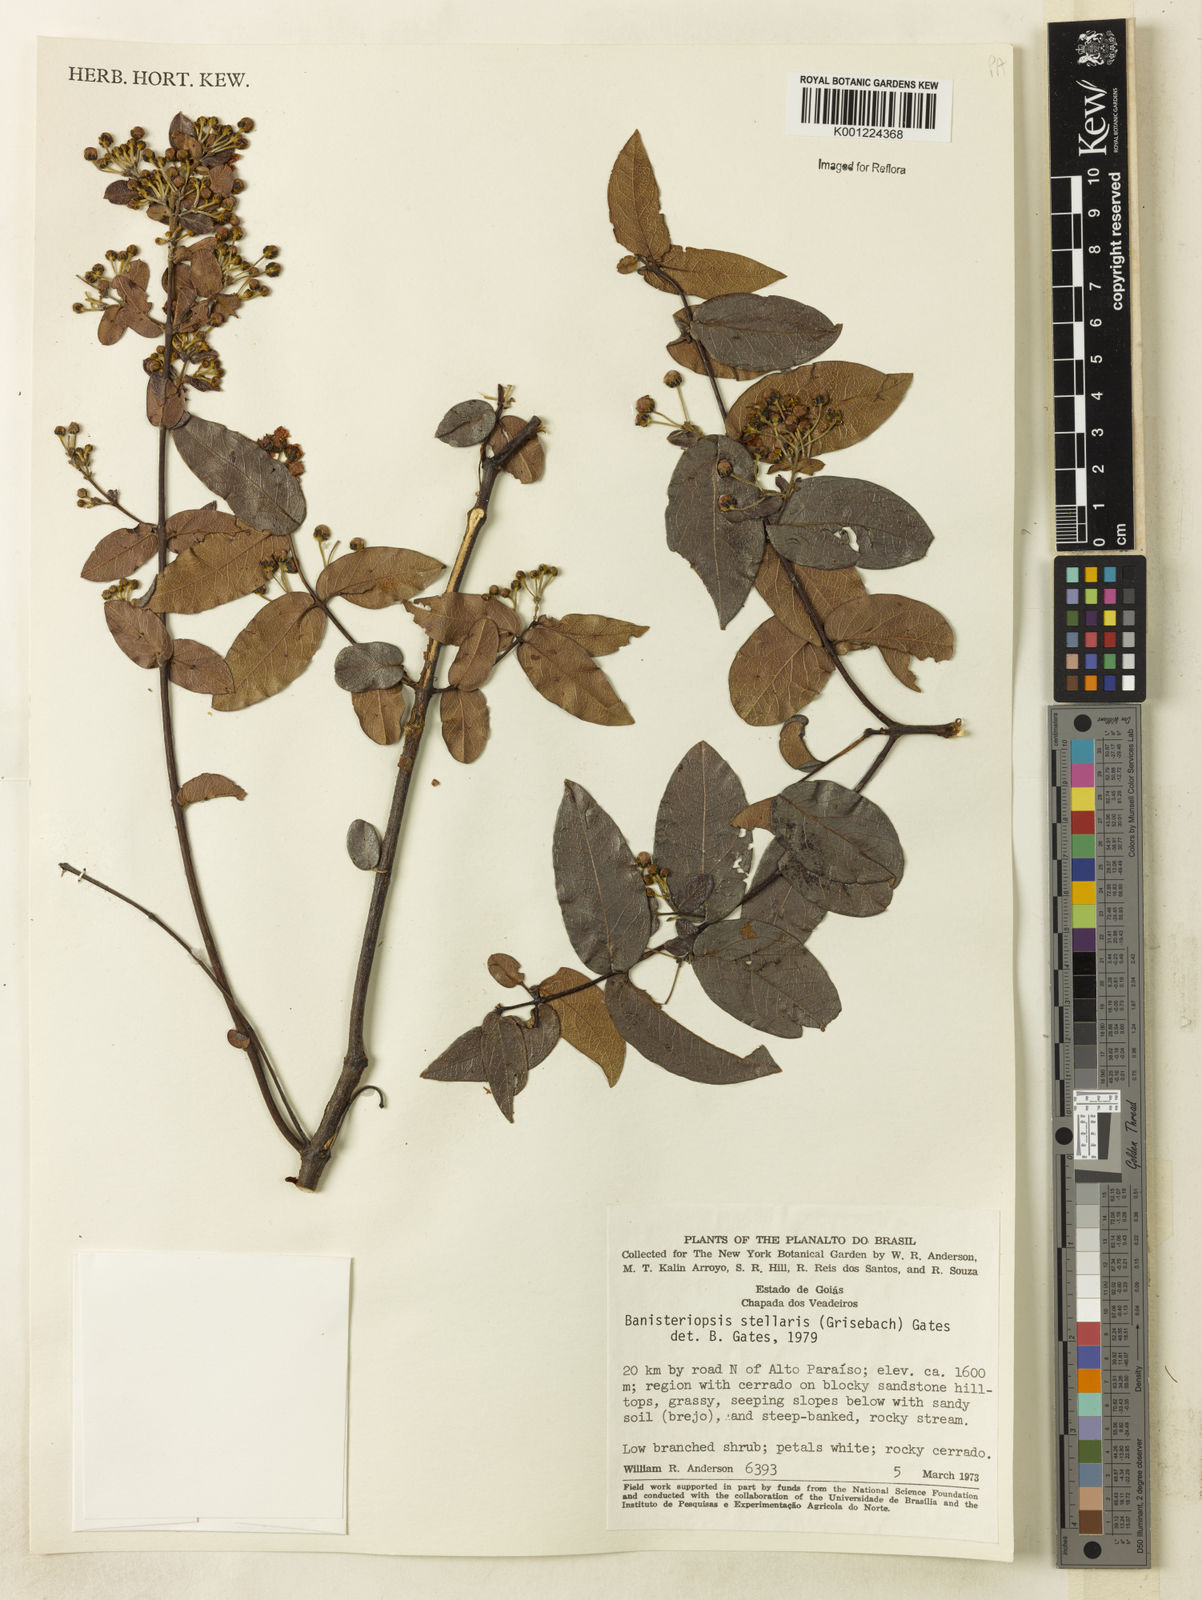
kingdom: Plantae
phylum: Tracheophyta
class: Magnoliopsida
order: Malpighiales
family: Malpighiaceae
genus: Banisteriopsis
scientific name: Banisteriopsis stellaris
